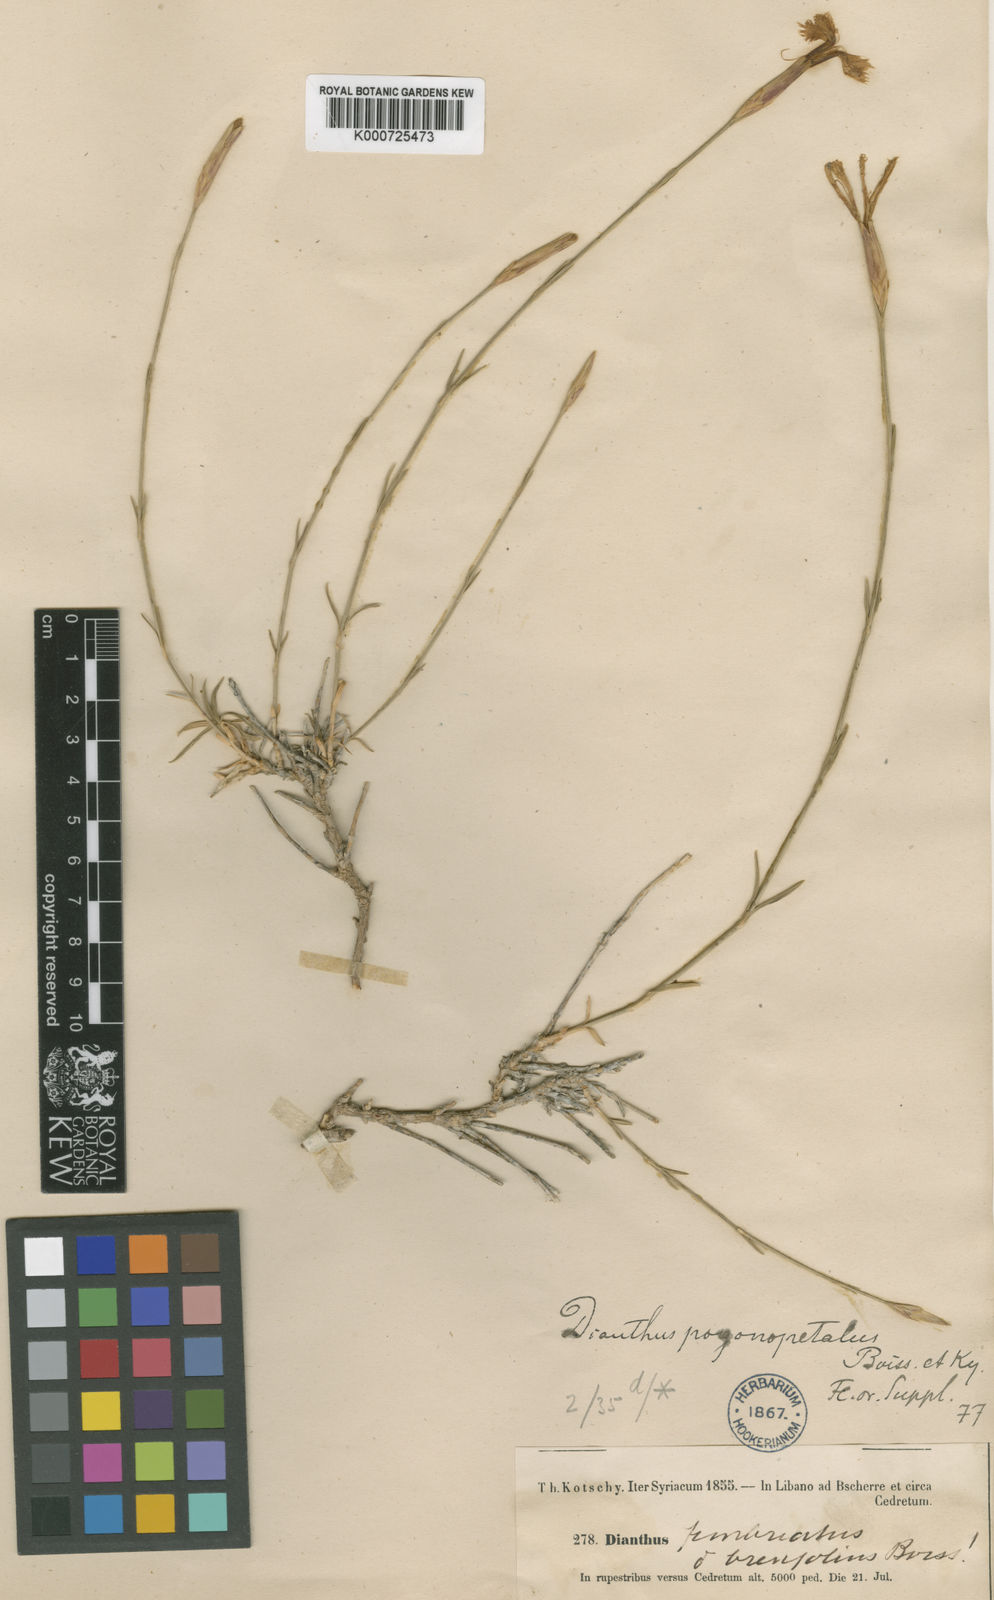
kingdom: Plantae
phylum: Tracheophyta
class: Magnoliopsida
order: Caryophyllales
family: Caryophyllaceae
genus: Dianthus
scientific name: Dianthus orientalis
